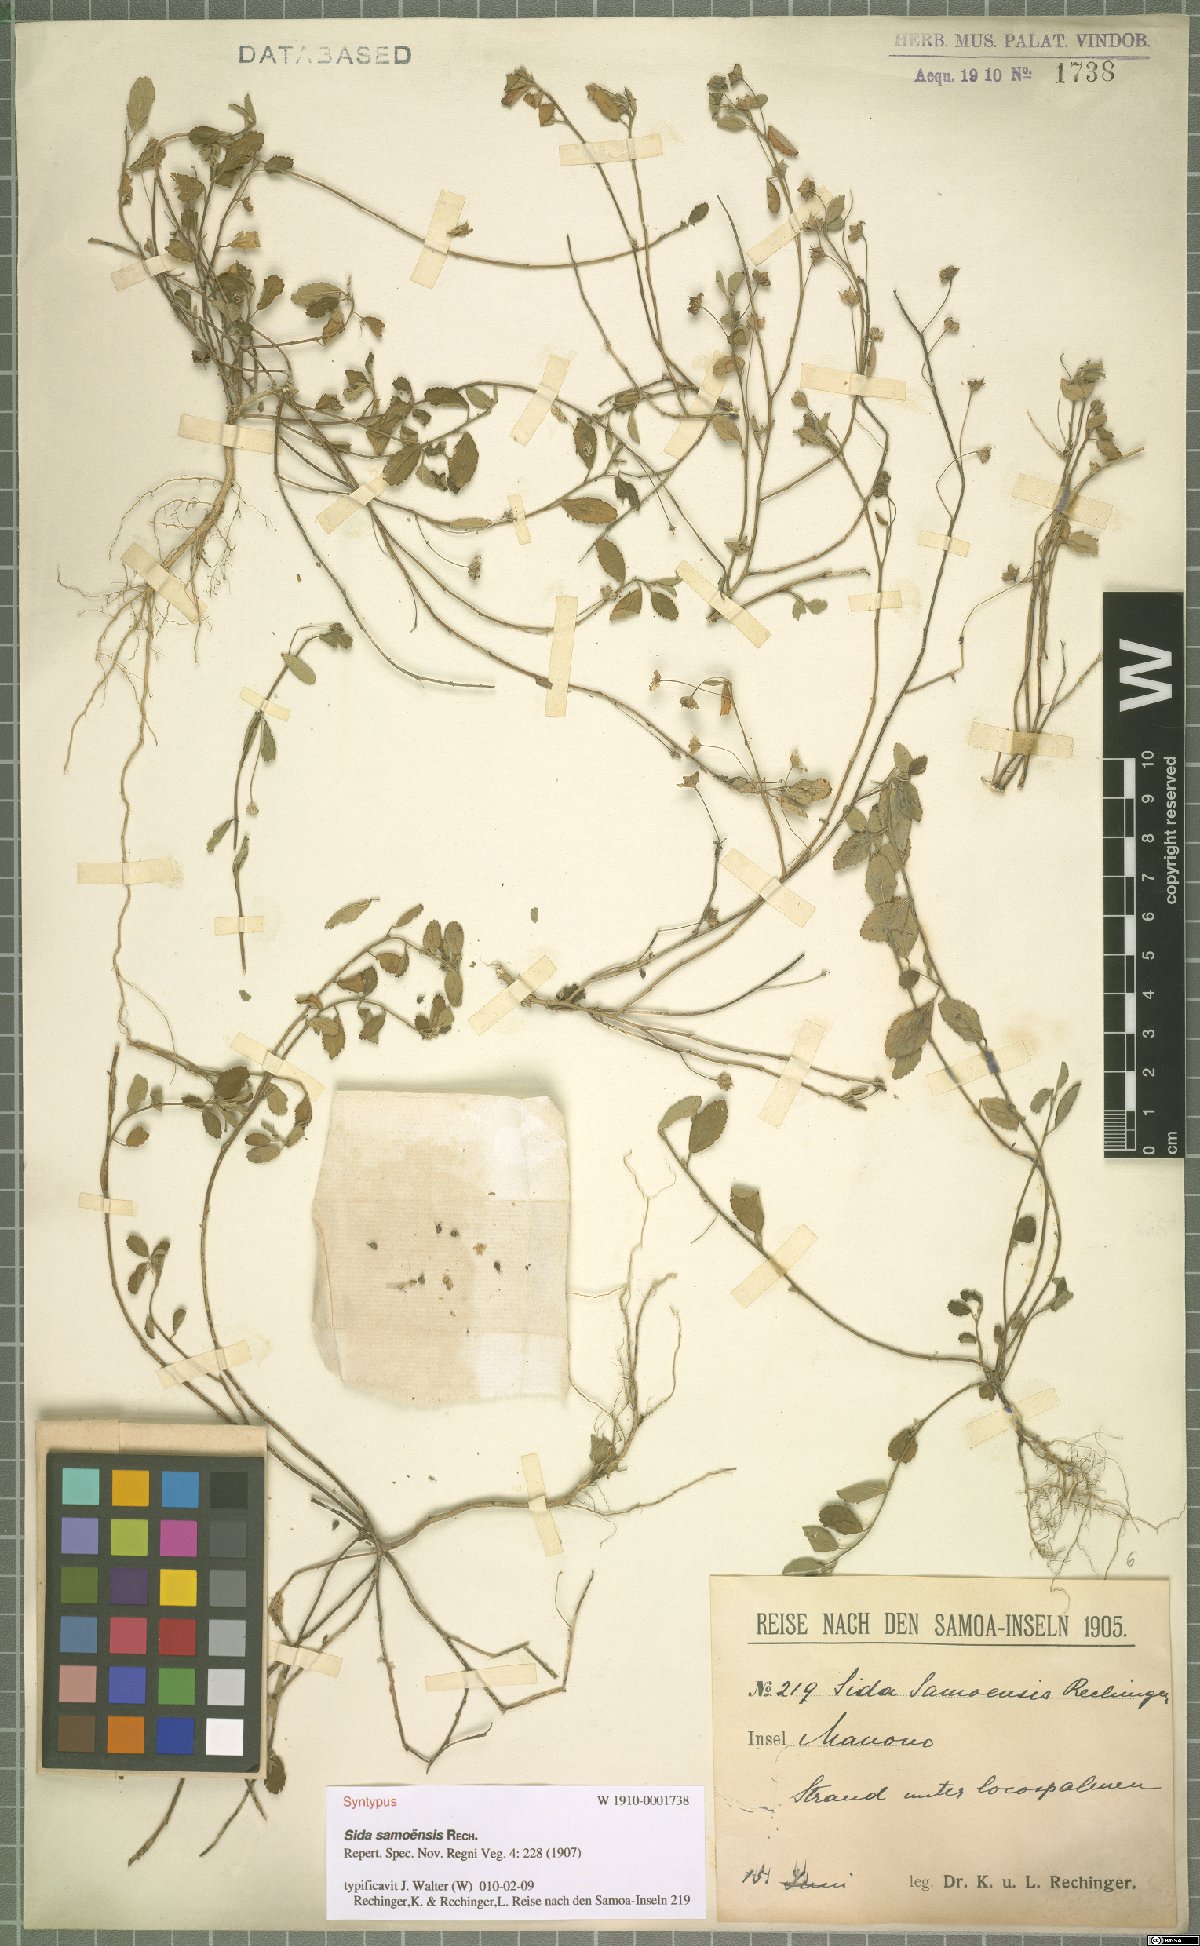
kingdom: Plantae
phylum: Tracheophyta
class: Magnoliopsida
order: Malvales
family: Malvaceae
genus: Sida
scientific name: Sida pusilla
